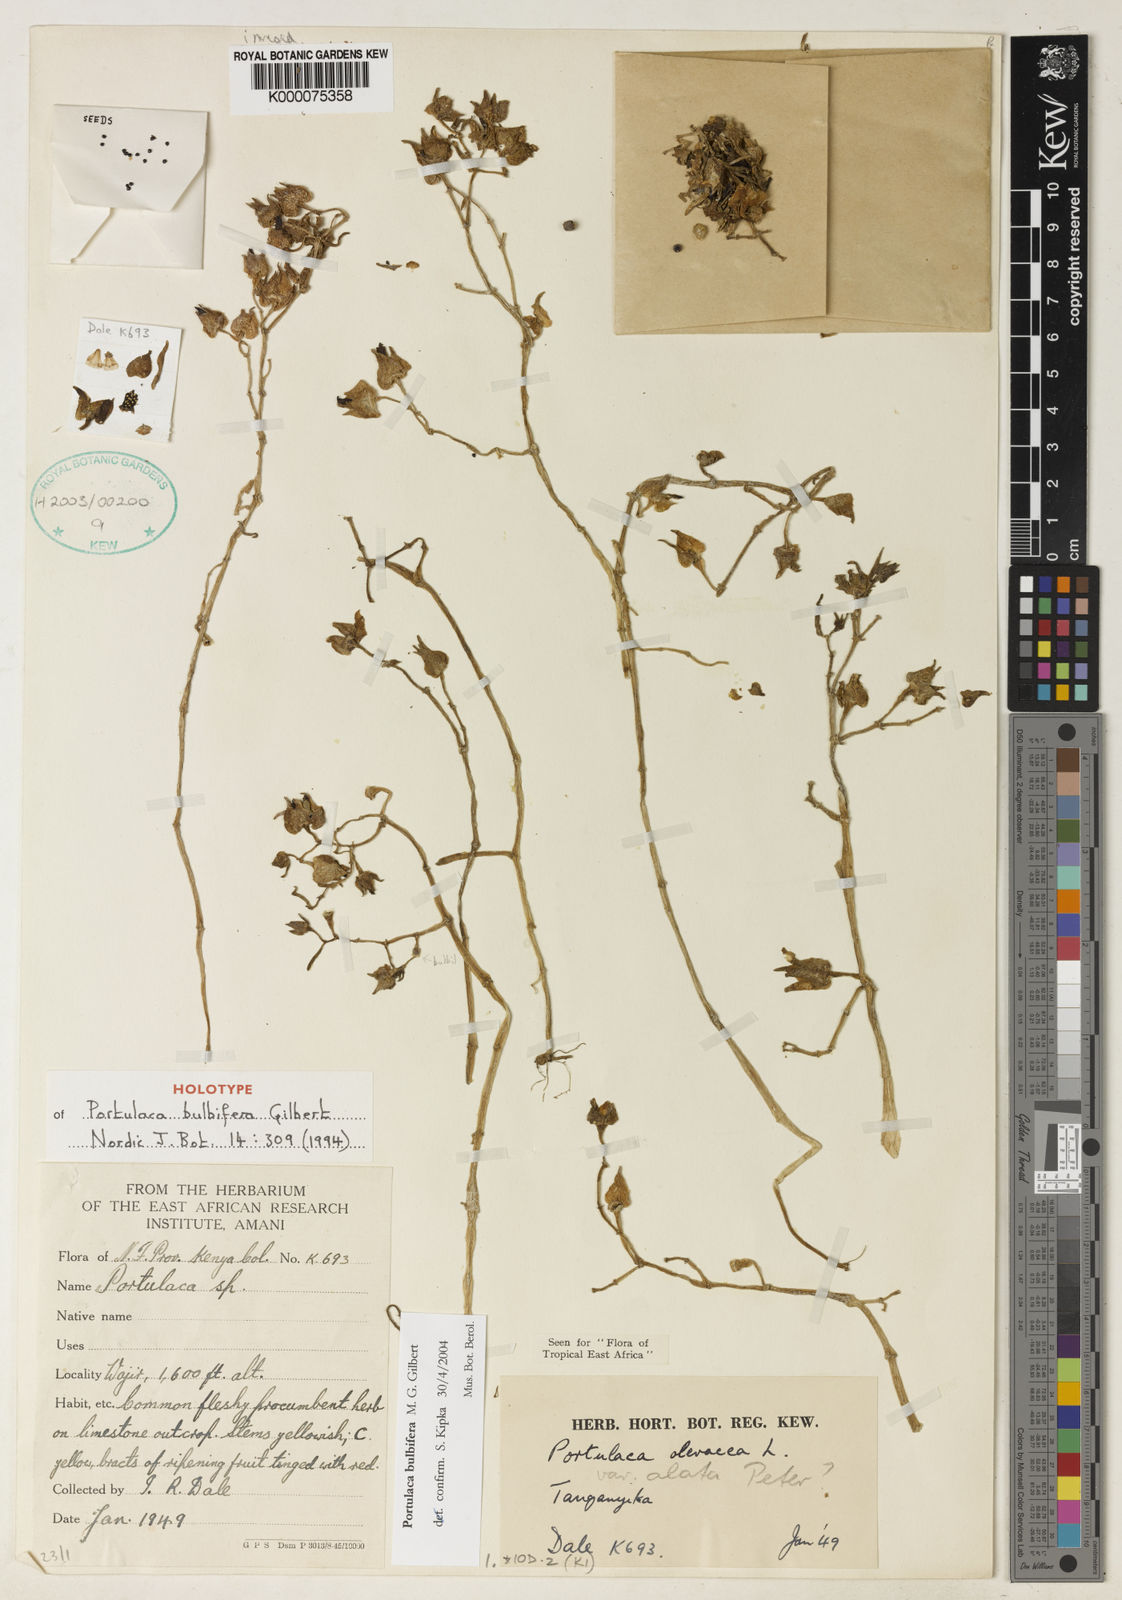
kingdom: Plantae
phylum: Tracheophyta
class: Magnoliopsida
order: Caryophyllales
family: Portulacaceae
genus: Portulaca
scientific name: Portulaca bulbifera
